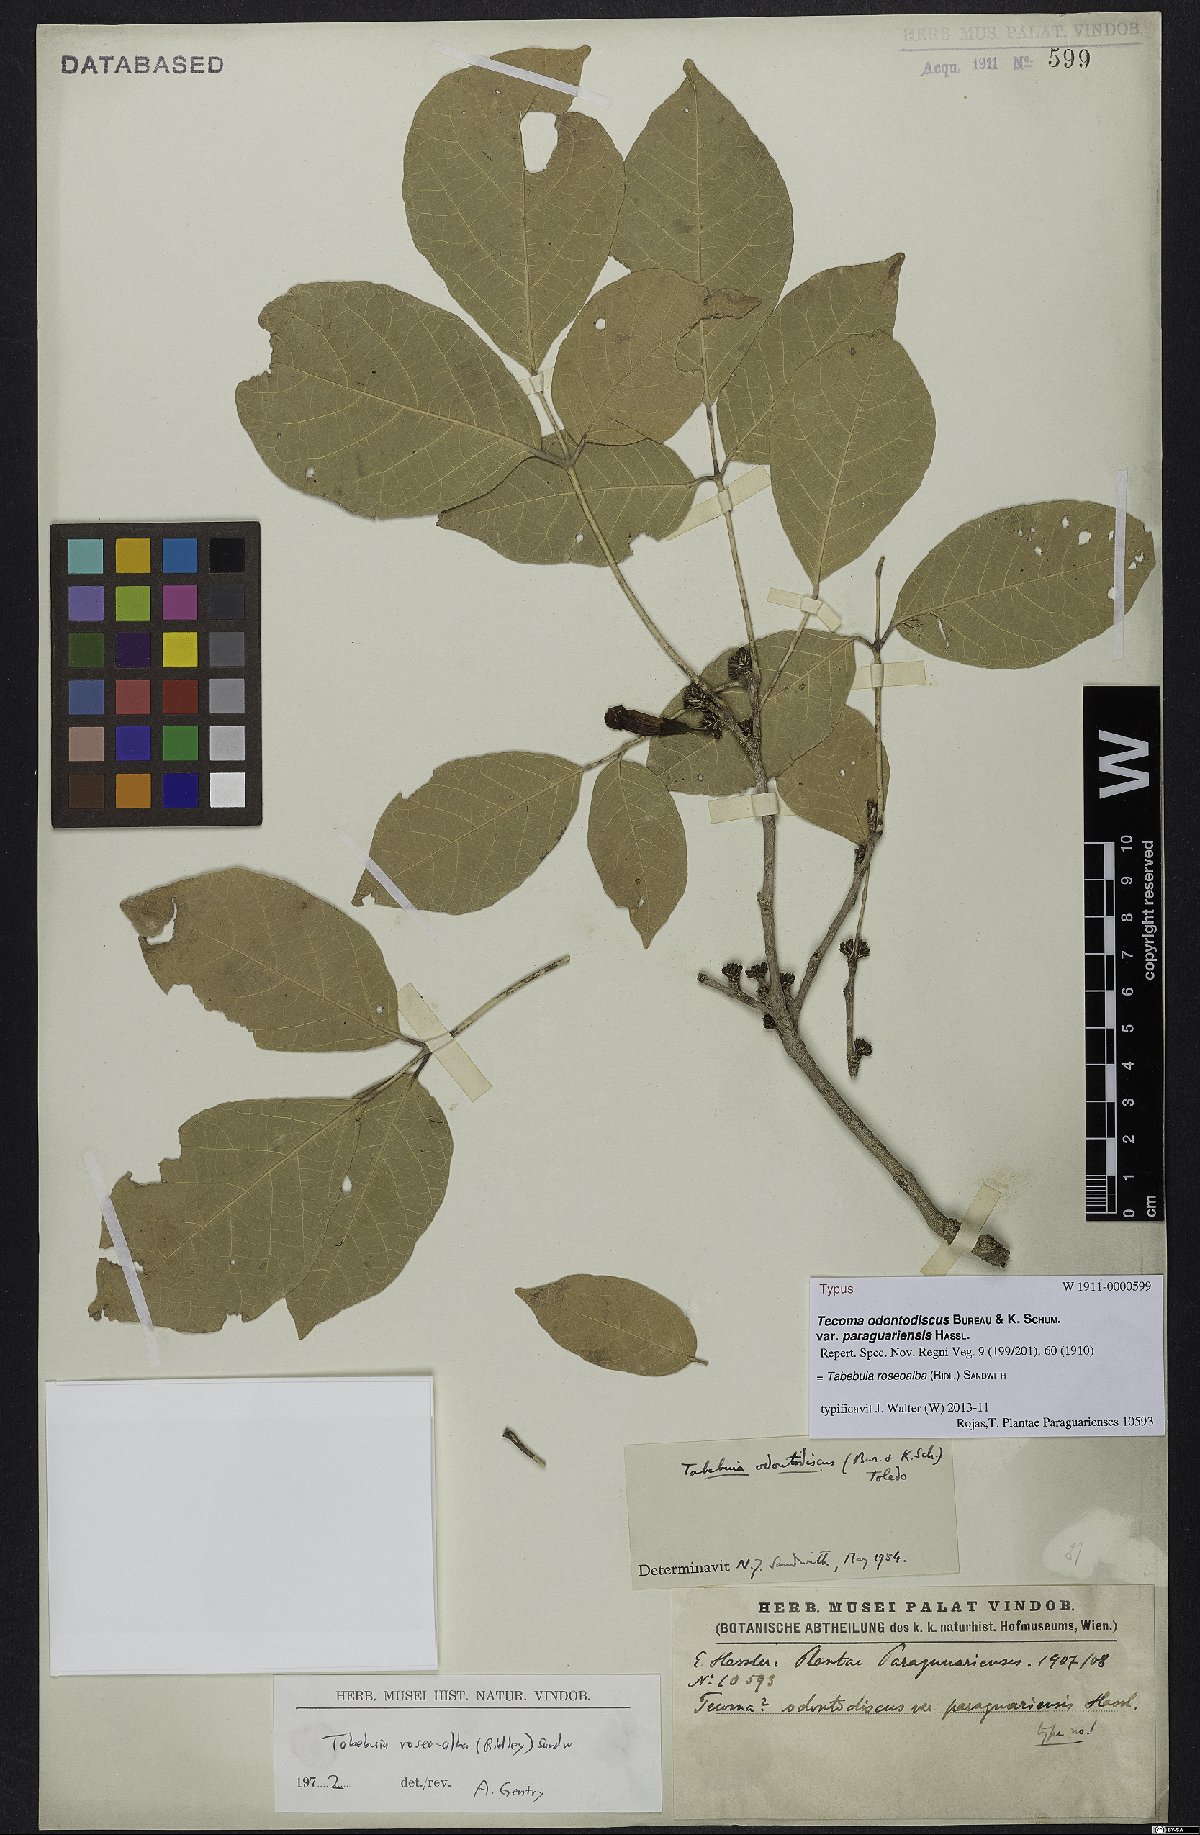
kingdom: Plantae
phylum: Tracheophyta
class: Magnoliopsida
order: Lamiales
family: Bignoniaceae
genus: Tabebuia
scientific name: Tabebuia roseoalba
